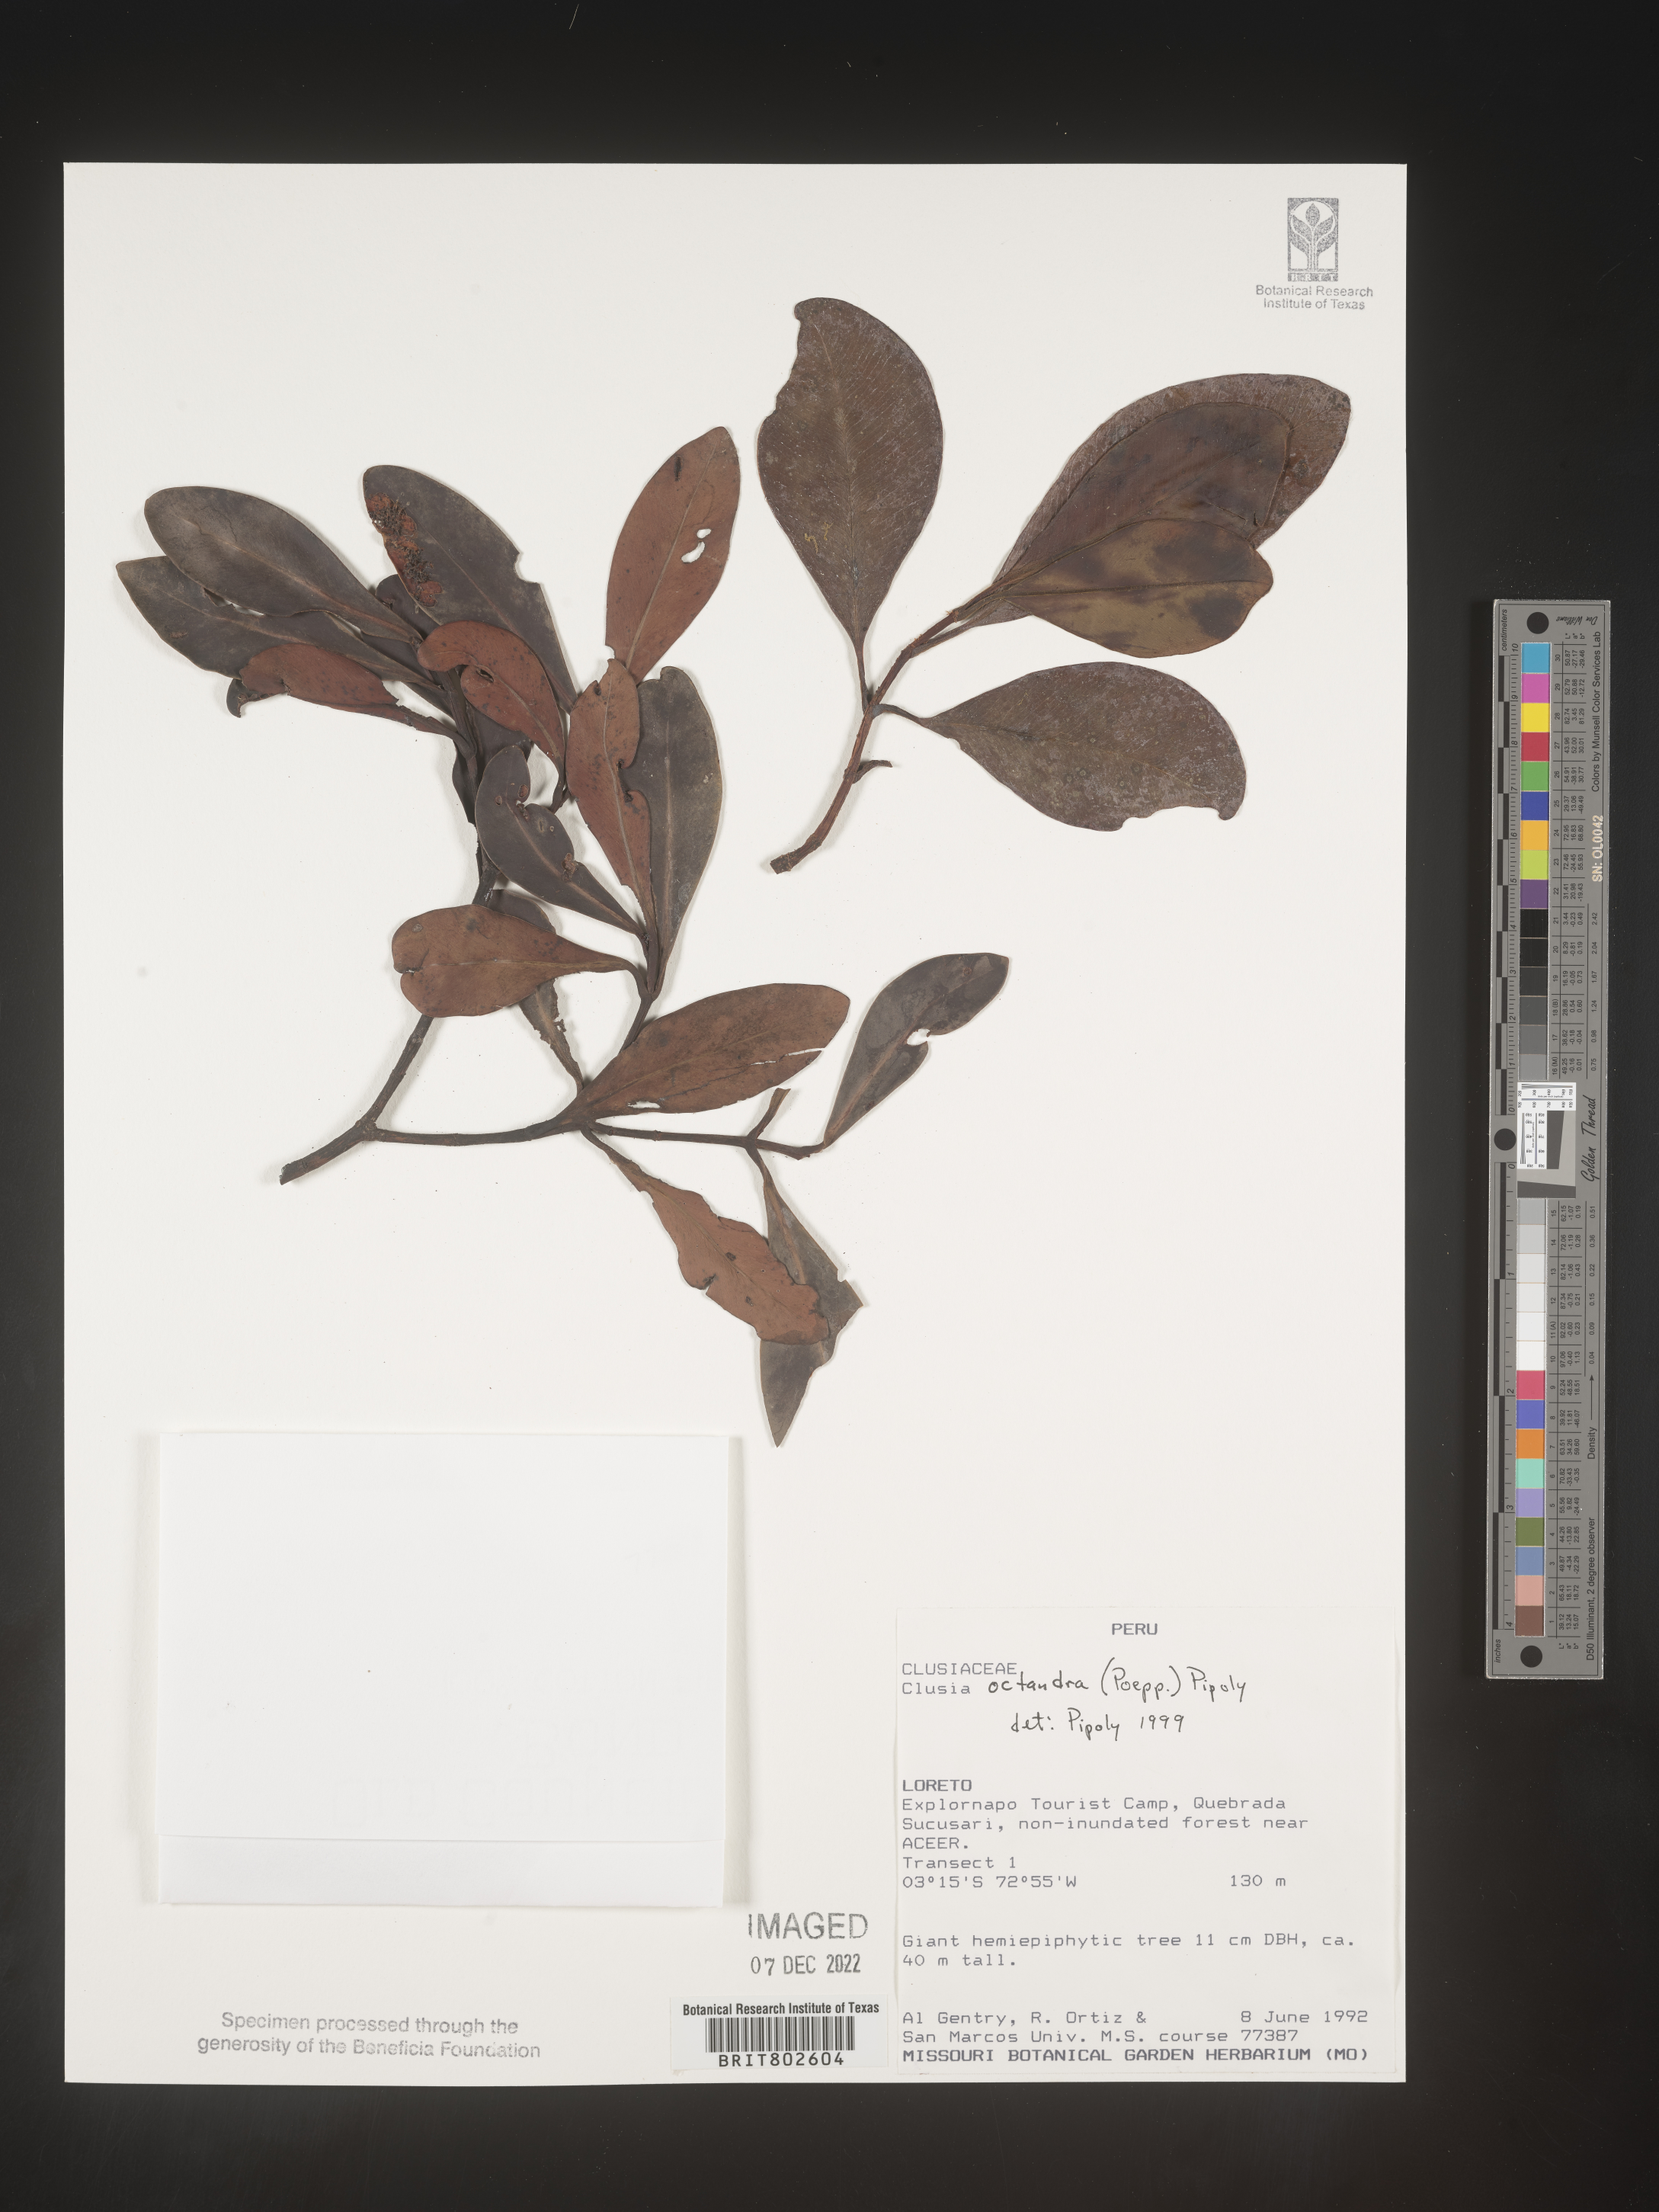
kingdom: Plantae
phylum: Tracheophyta
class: Magnoliopsida
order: Malpighiales
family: Clusiaceae
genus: Clusia
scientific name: Clusia
